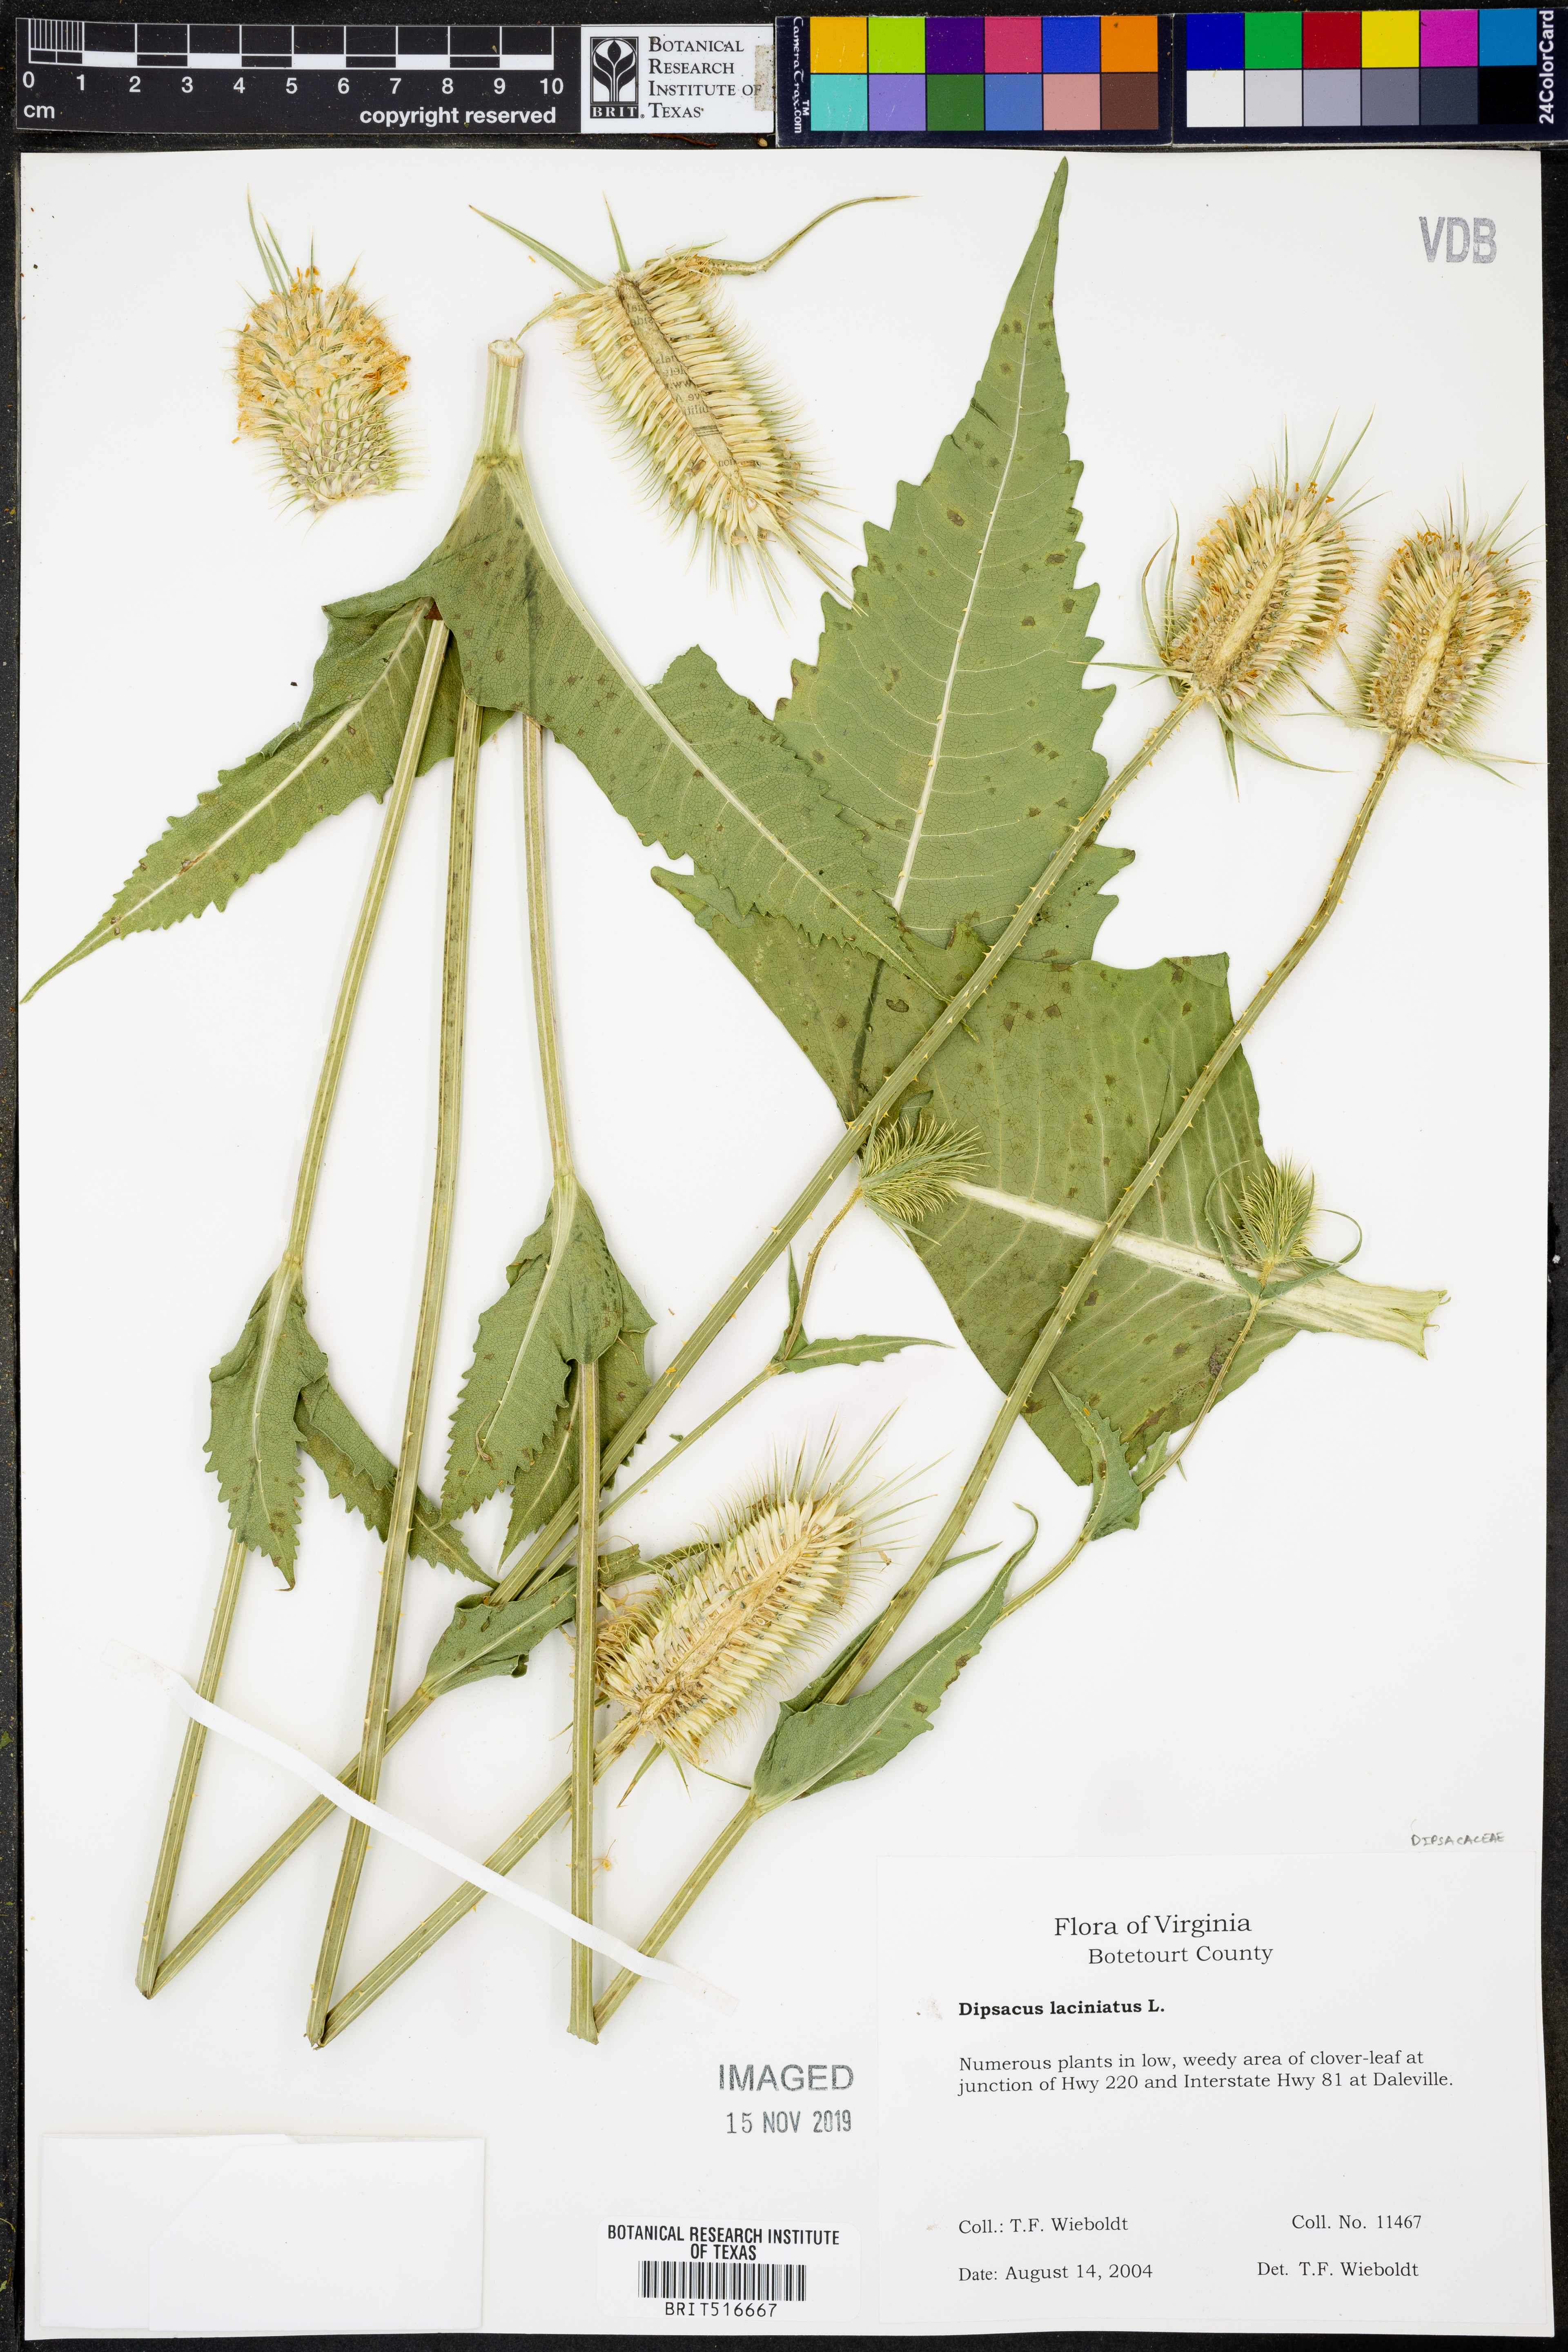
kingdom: Plantae
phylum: Tracheophyta
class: Magnoliopsida
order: Dipsacales
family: Caprifoliaceae
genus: Dipsacus
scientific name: Dipsacus laciniatus
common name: Cut-leaved teasel
